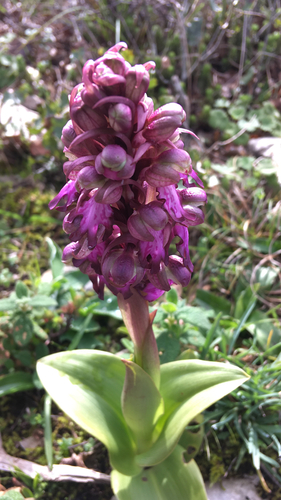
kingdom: Plantae
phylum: Tracheophyta
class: Liliopsida
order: Asparagales
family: Orchidaceae
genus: Himantoglossum
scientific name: Himantoglossum robertianum
